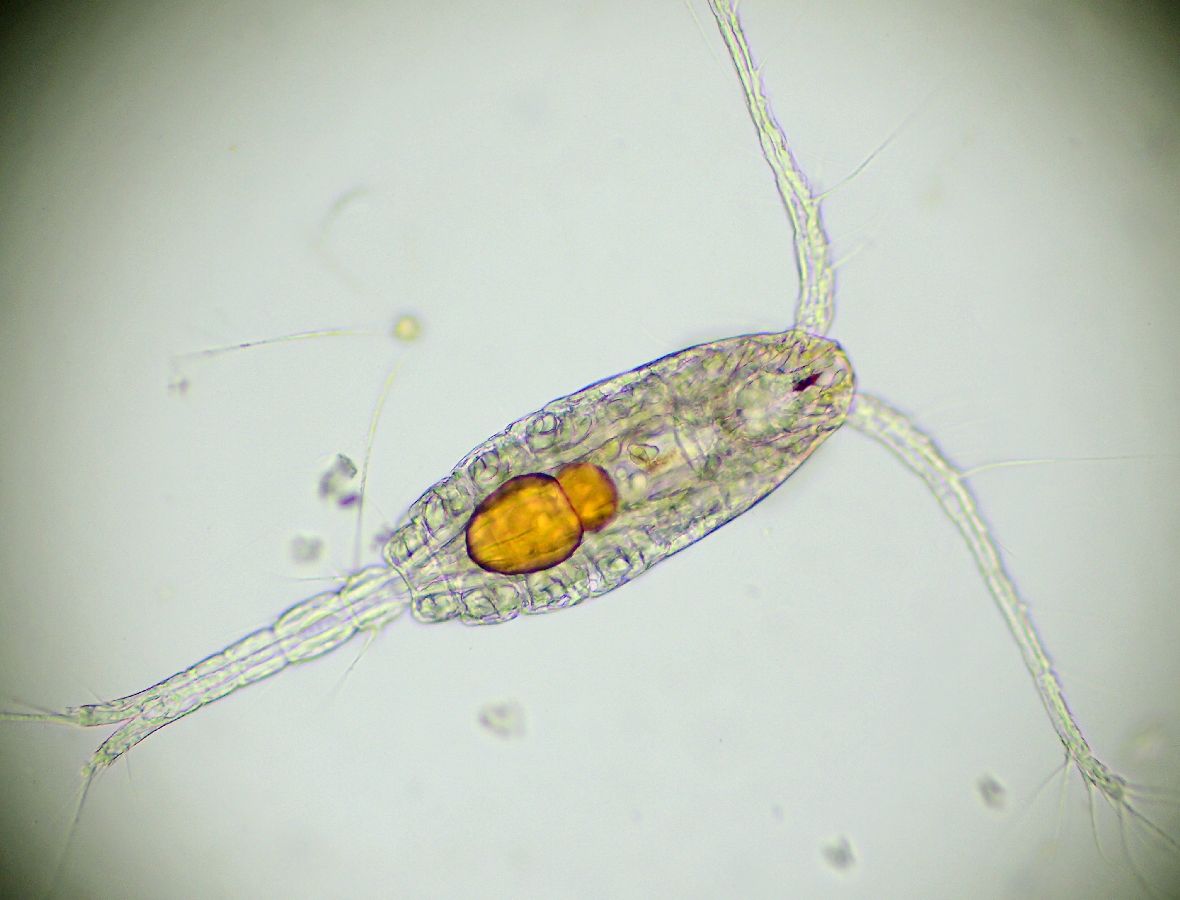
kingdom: Animalia
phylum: Arthropoda
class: Copepoda
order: Cyclopoida
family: Oithonidae
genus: Oithona
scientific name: Oithona similis
